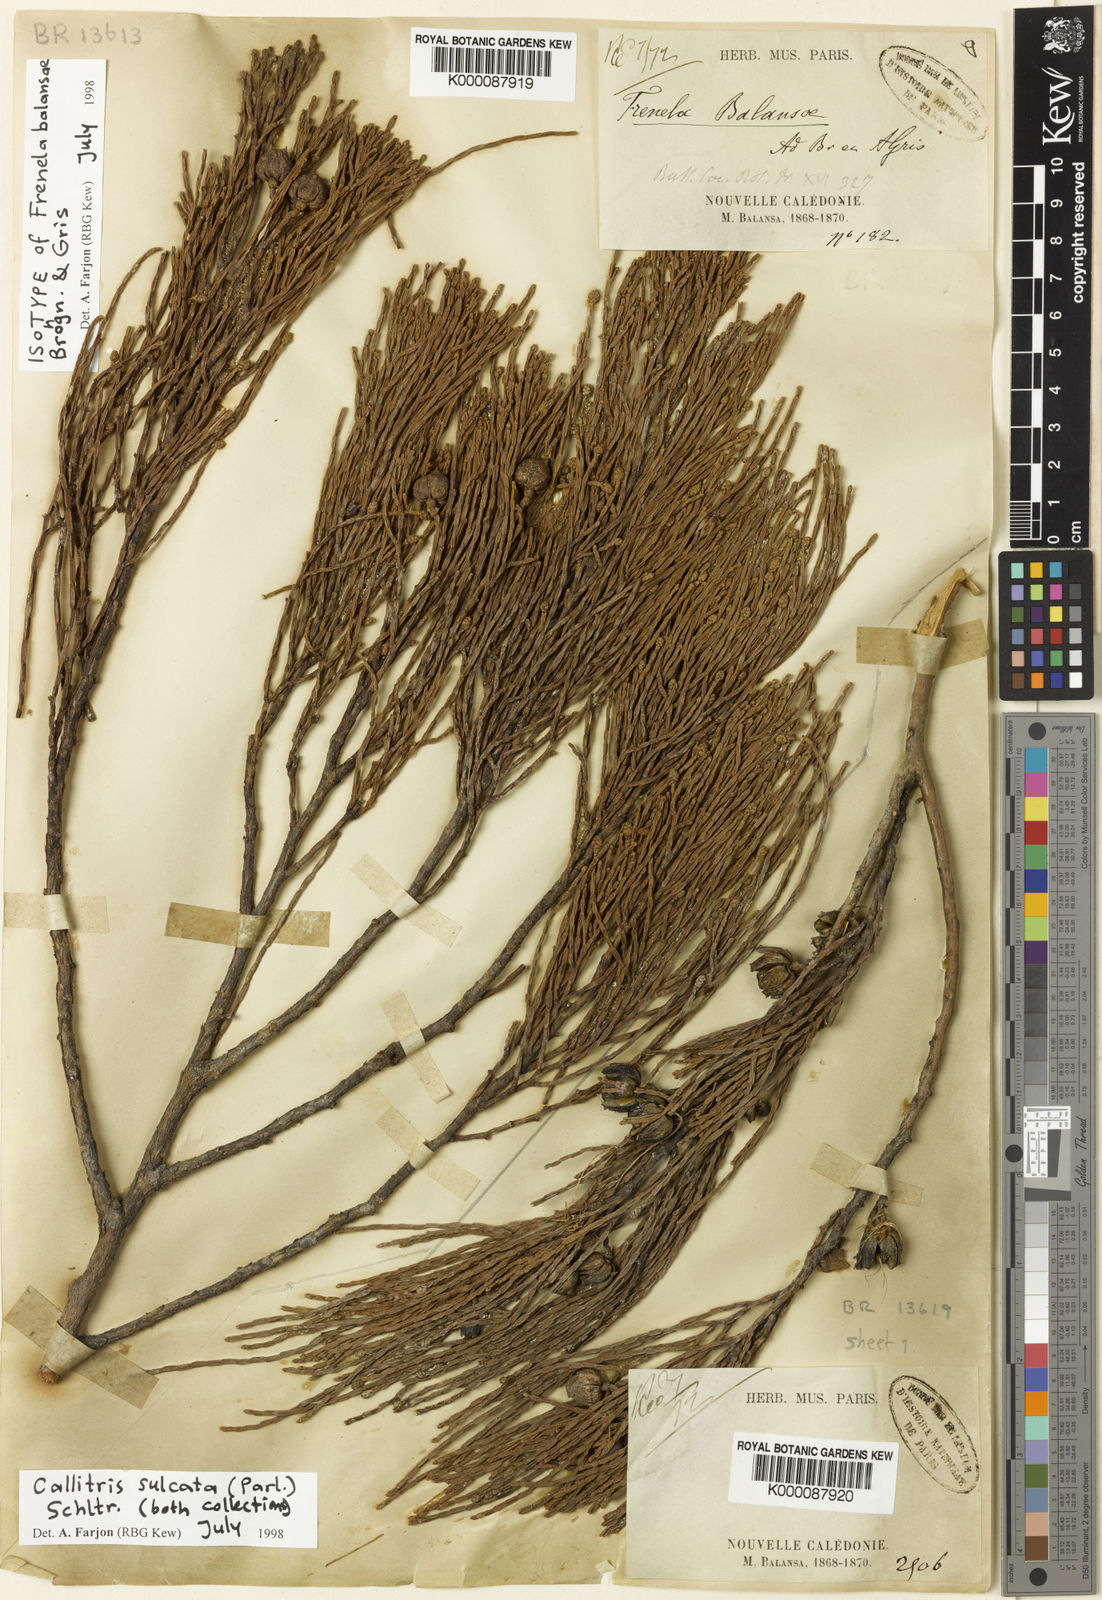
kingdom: Plantae
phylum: Tracheophyta
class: Pinopsida
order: Pinales
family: Cupressaceae
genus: Callitris
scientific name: Callitris sulcata
